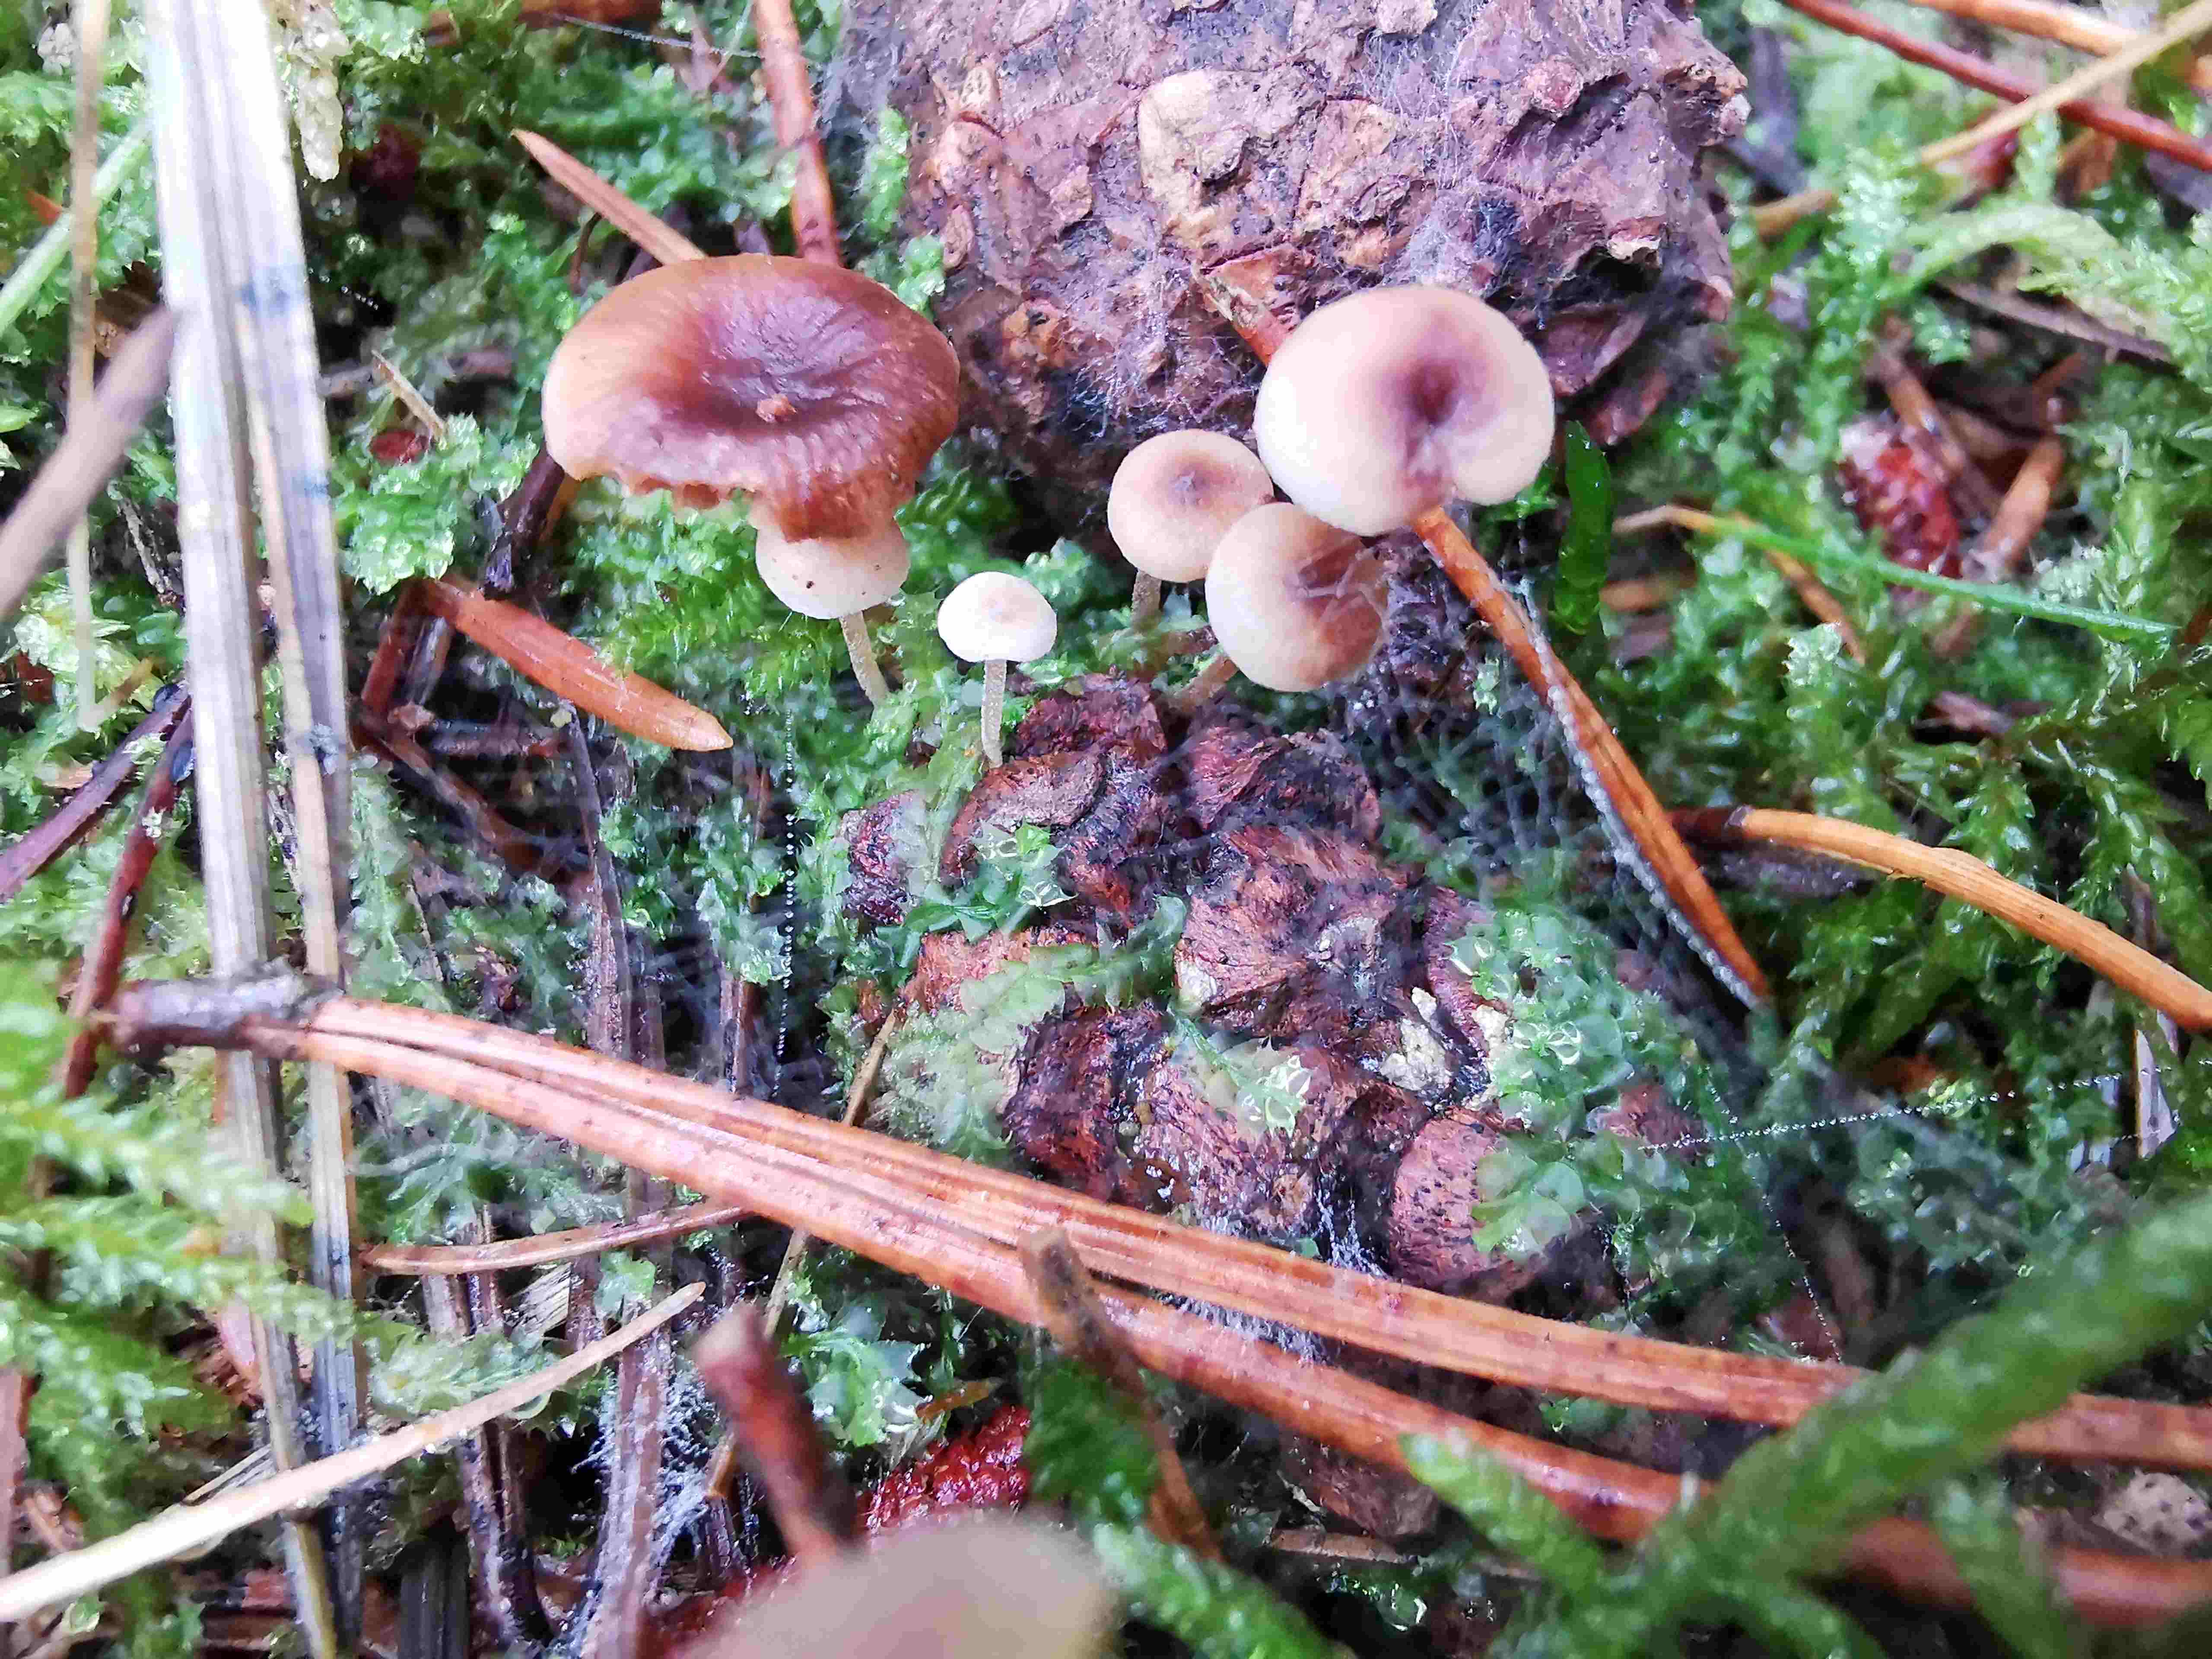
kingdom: Fungi
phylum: Basidiomycota
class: Agaricomycetes
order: Agaricales
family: Marasmiaceae
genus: Baeospora
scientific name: Baeospora myosura
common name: koglebruskhat
